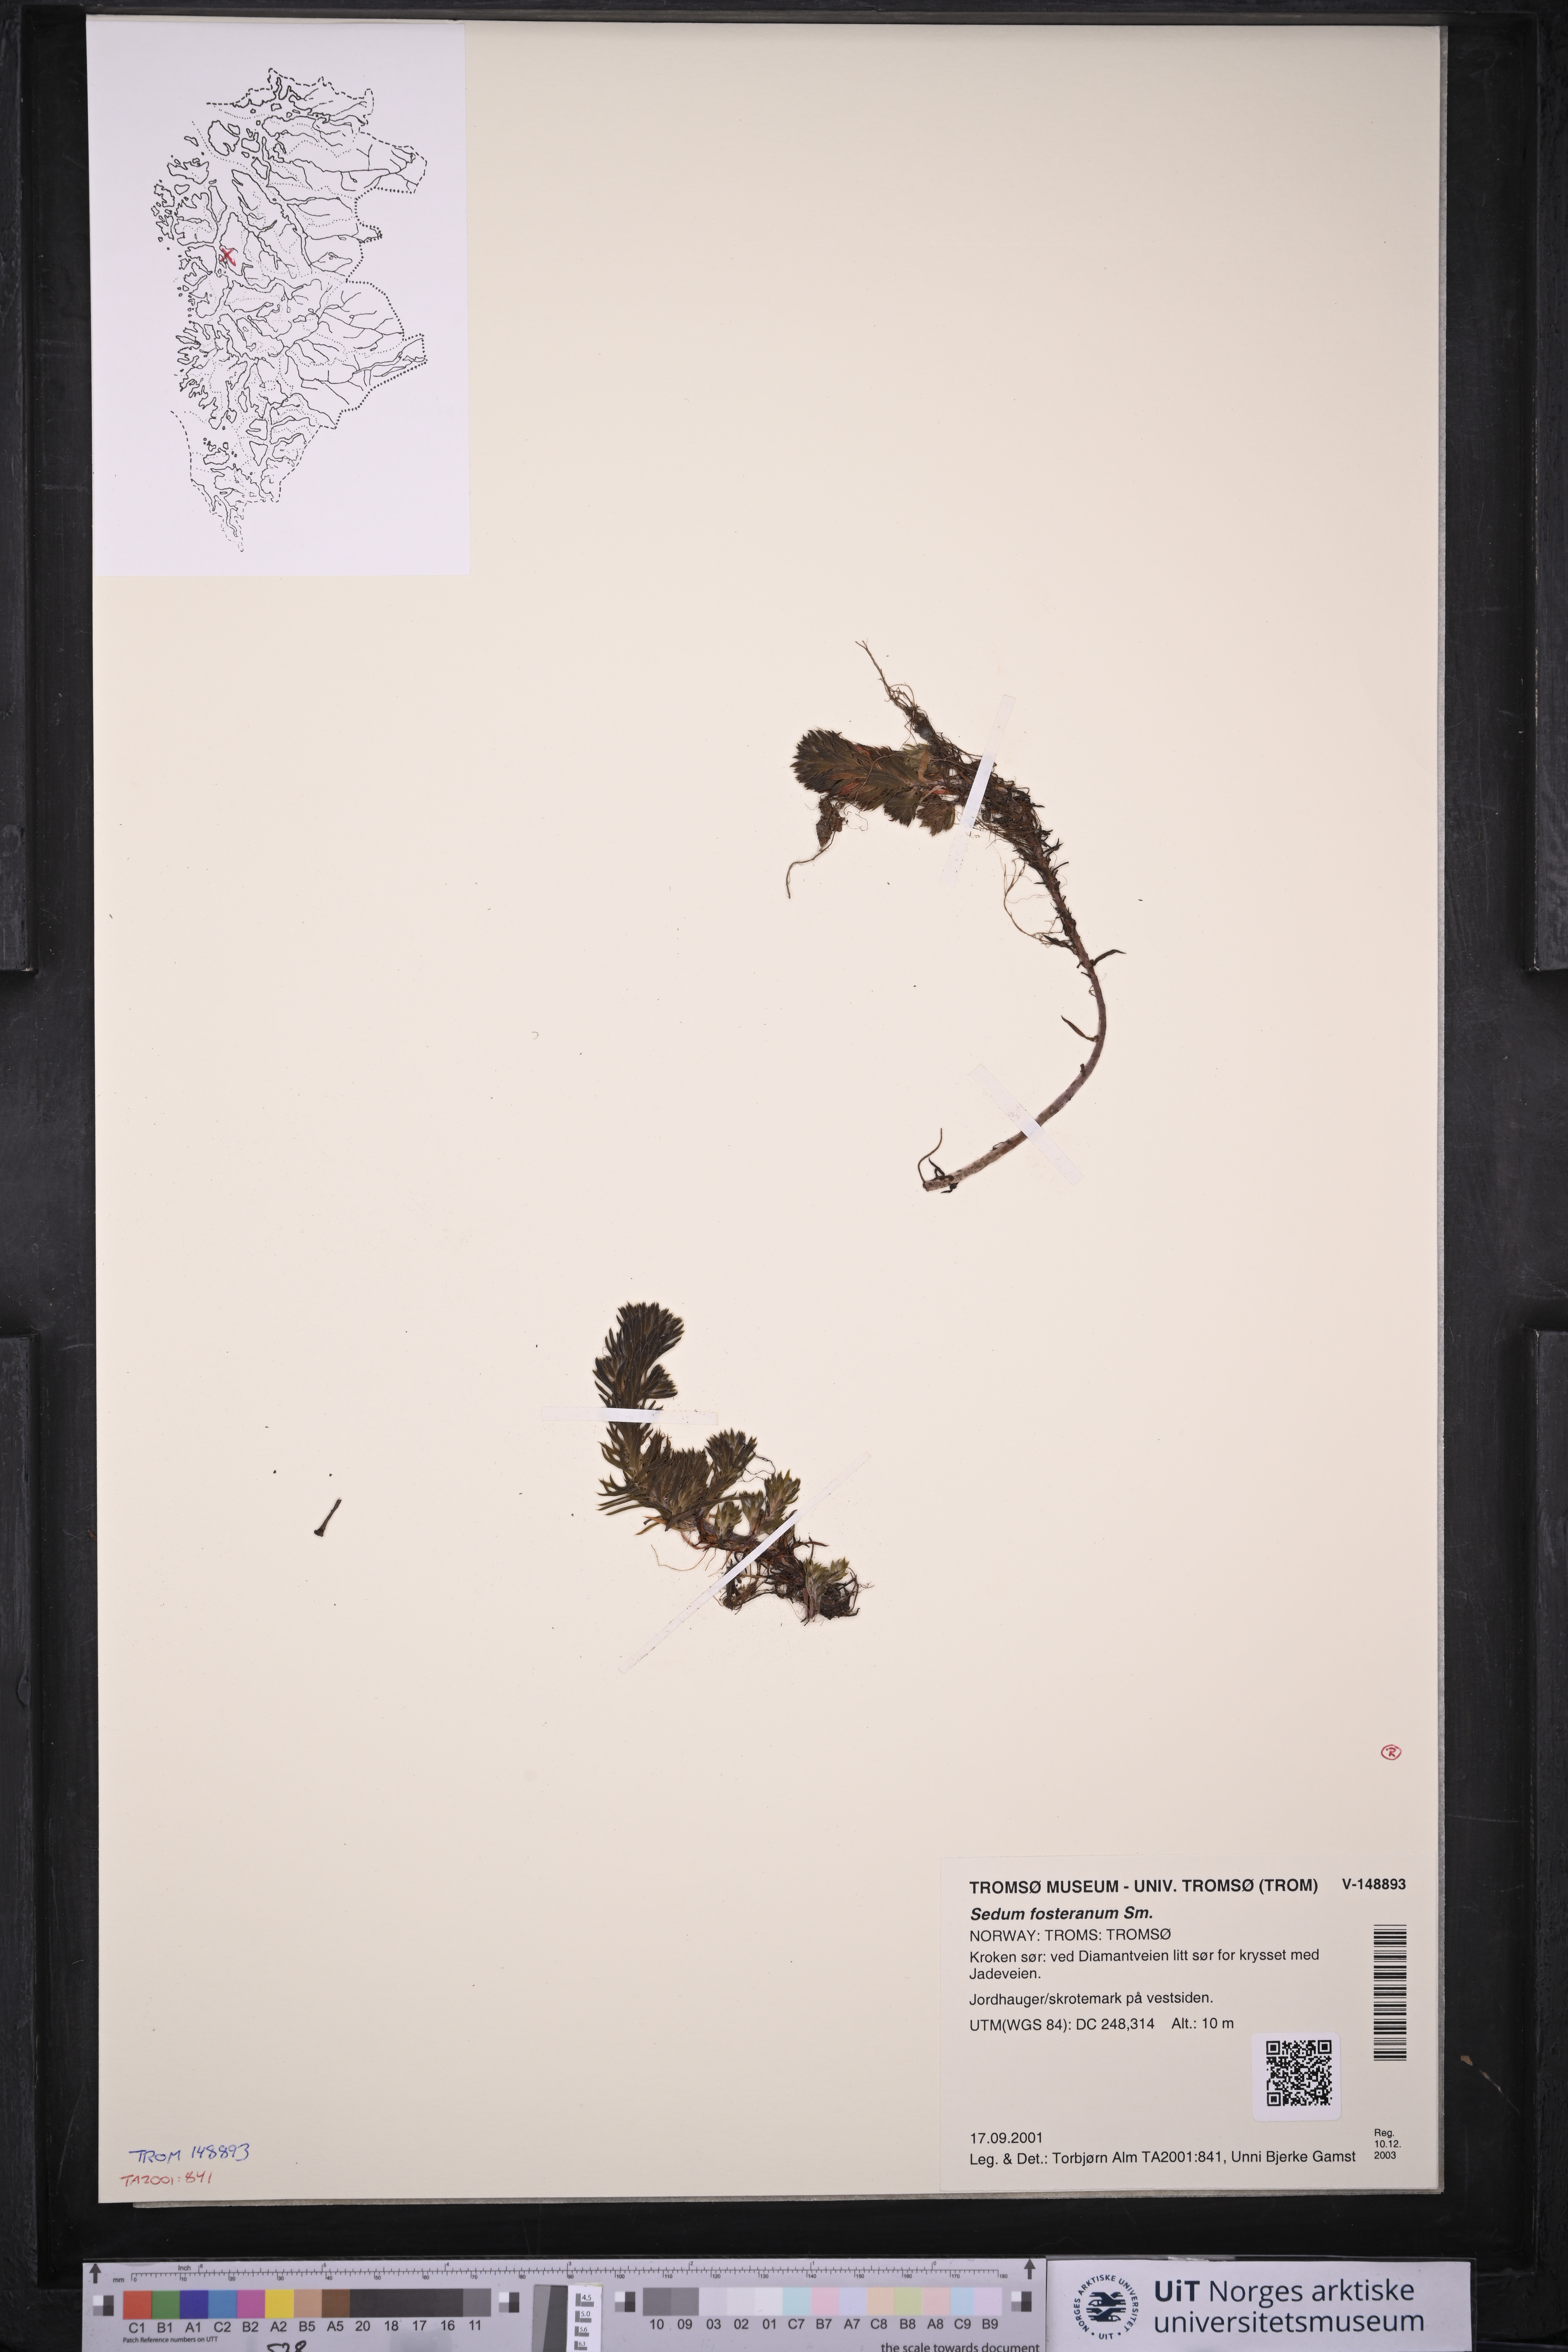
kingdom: Plantae
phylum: Tracheophyta
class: Magnoliopsida
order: Saxifragales
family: Crassulaceae
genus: Petrosedum
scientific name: Petrosedum forsterianum
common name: Forster's stonecrop
